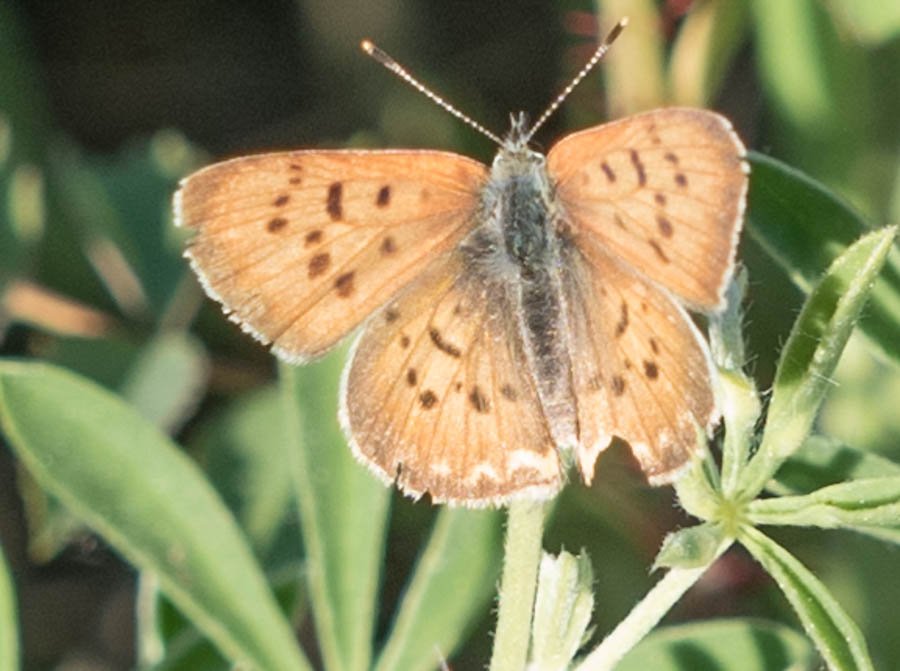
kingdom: Animalia
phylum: Arthropoda
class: Insecta
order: Lepidoptera
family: Sesiidae
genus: Sesia
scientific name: Sesia Lycaena helloides
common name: Purplish Copper
